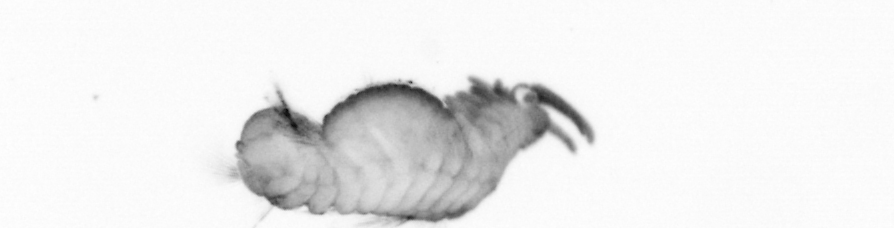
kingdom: Animalia
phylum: Annelida
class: Polychaeta
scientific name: Polychaeta
